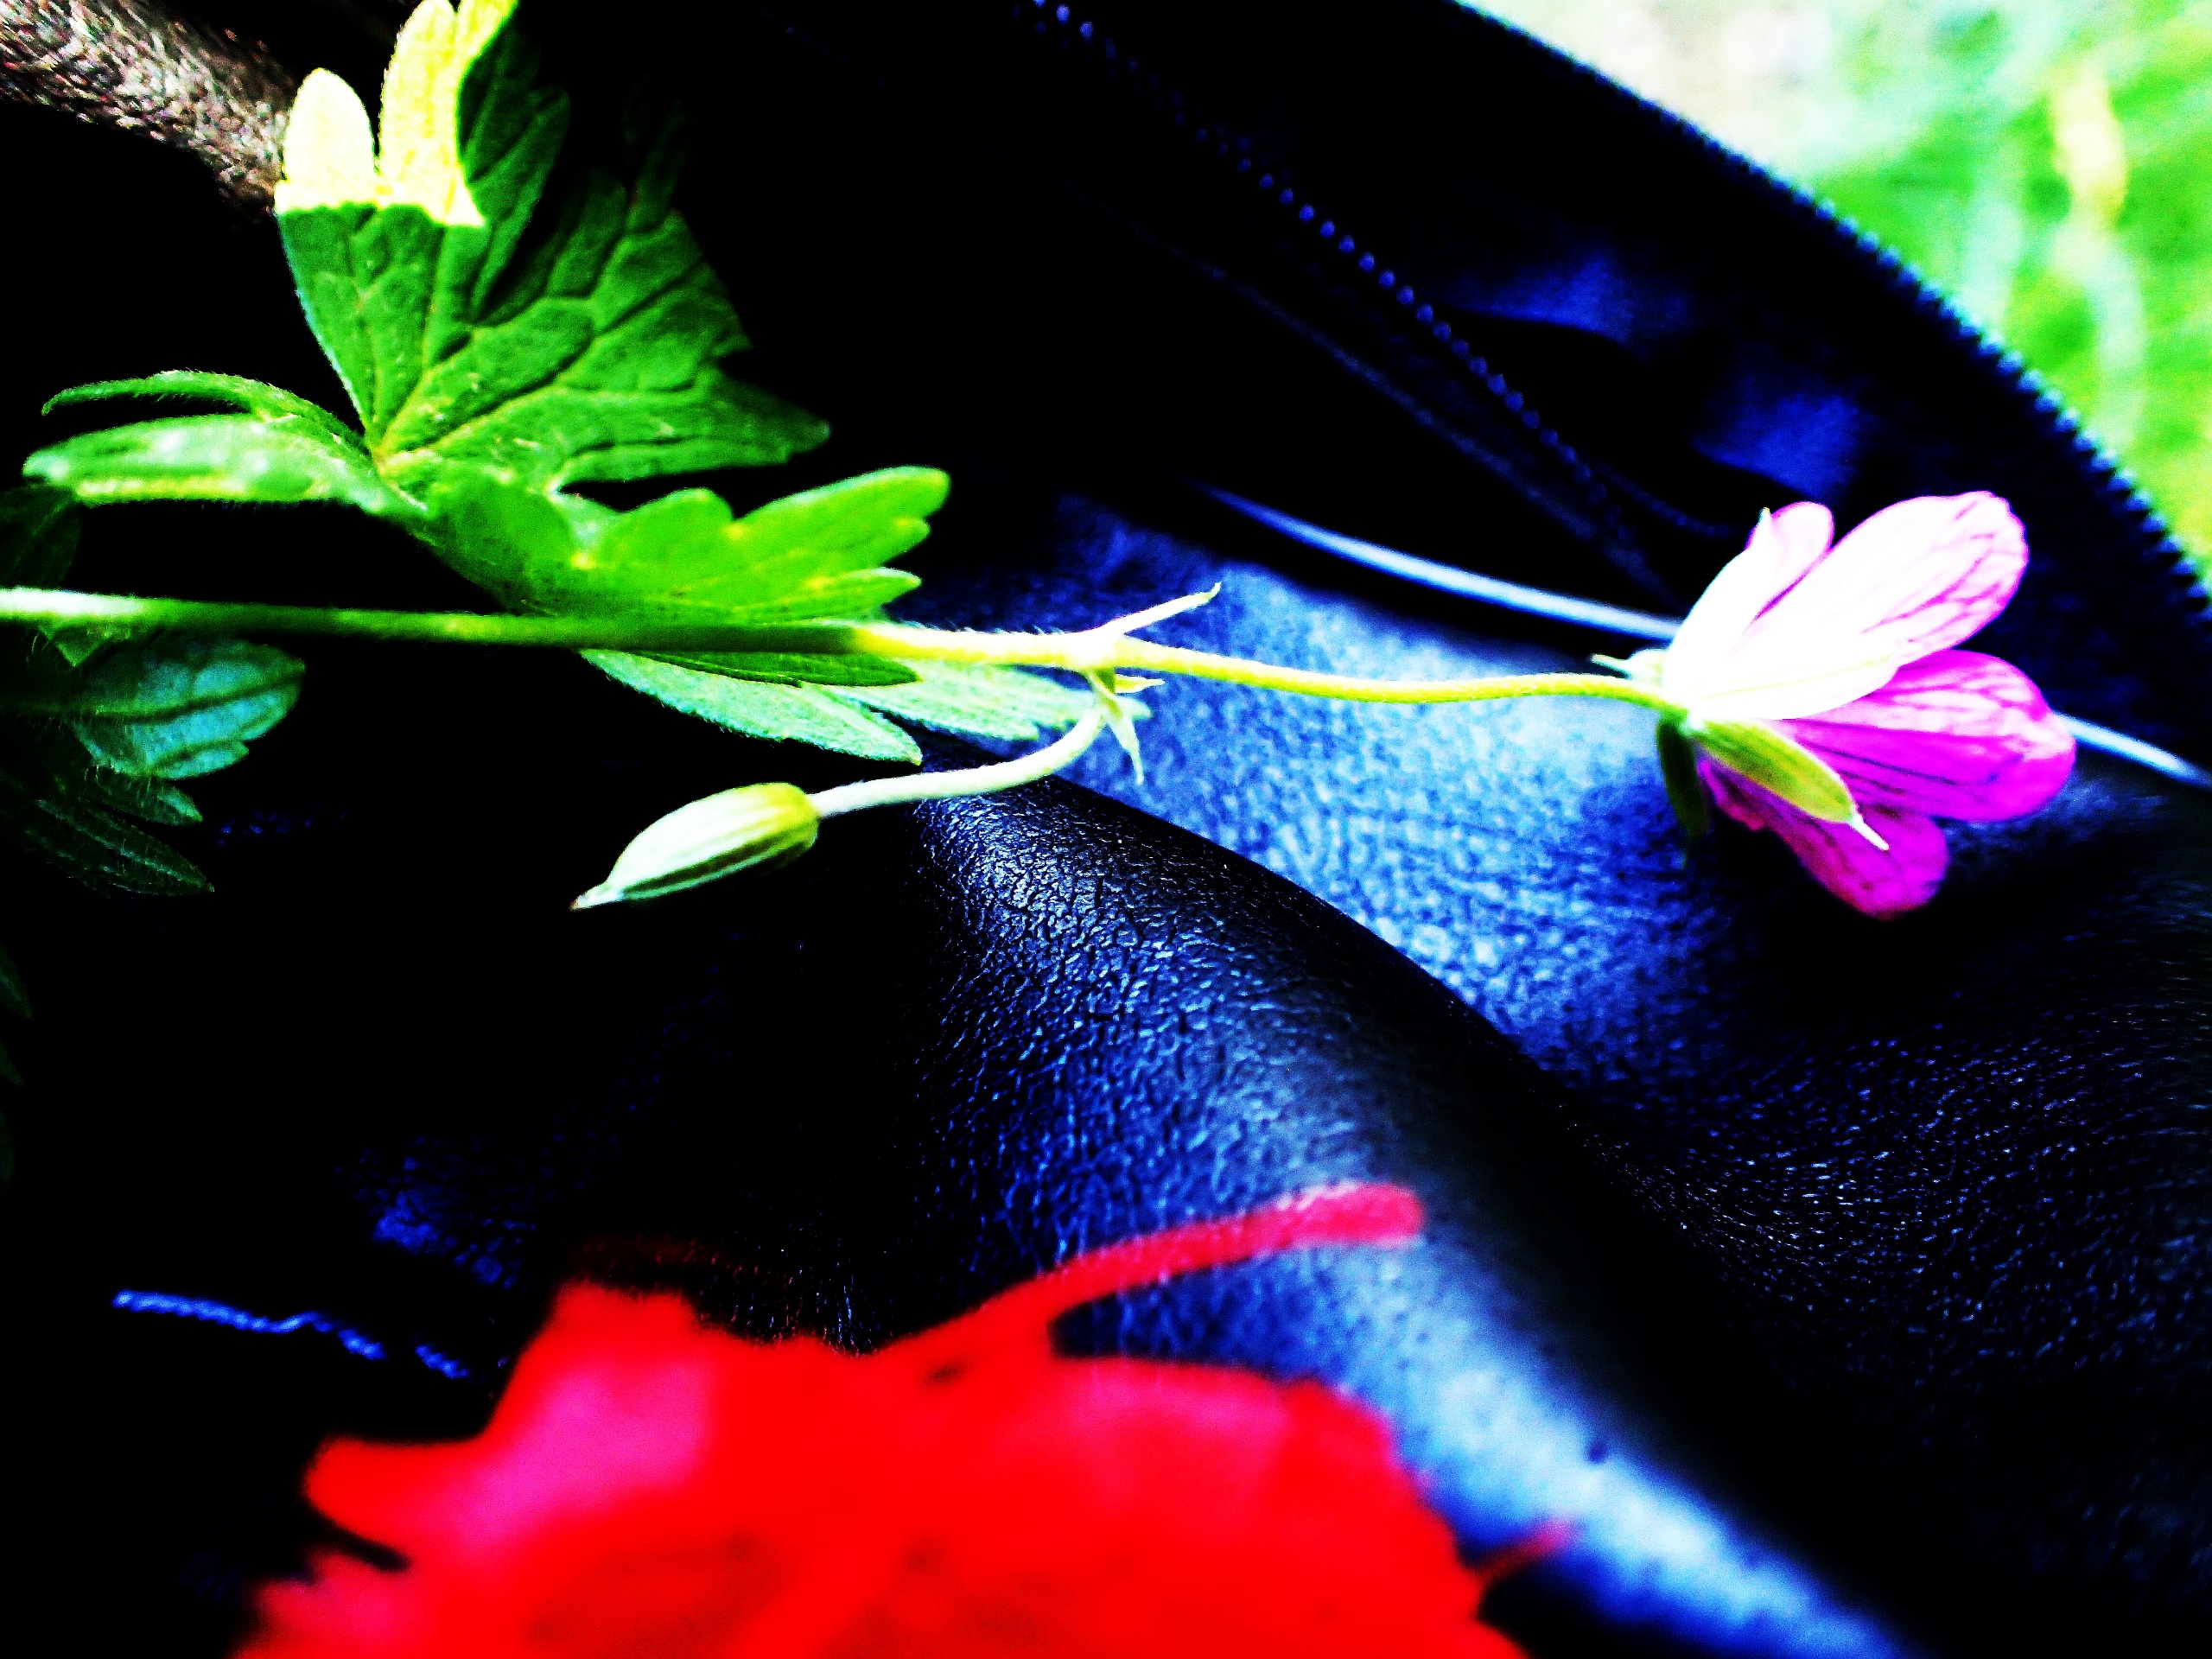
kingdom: Plantae
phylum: Tracheophyta
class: Magnoliopsida
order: Geraniales
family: Geraniaceae
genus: Geranium
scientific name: Geranium palustre
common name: Kær-storkenæb
